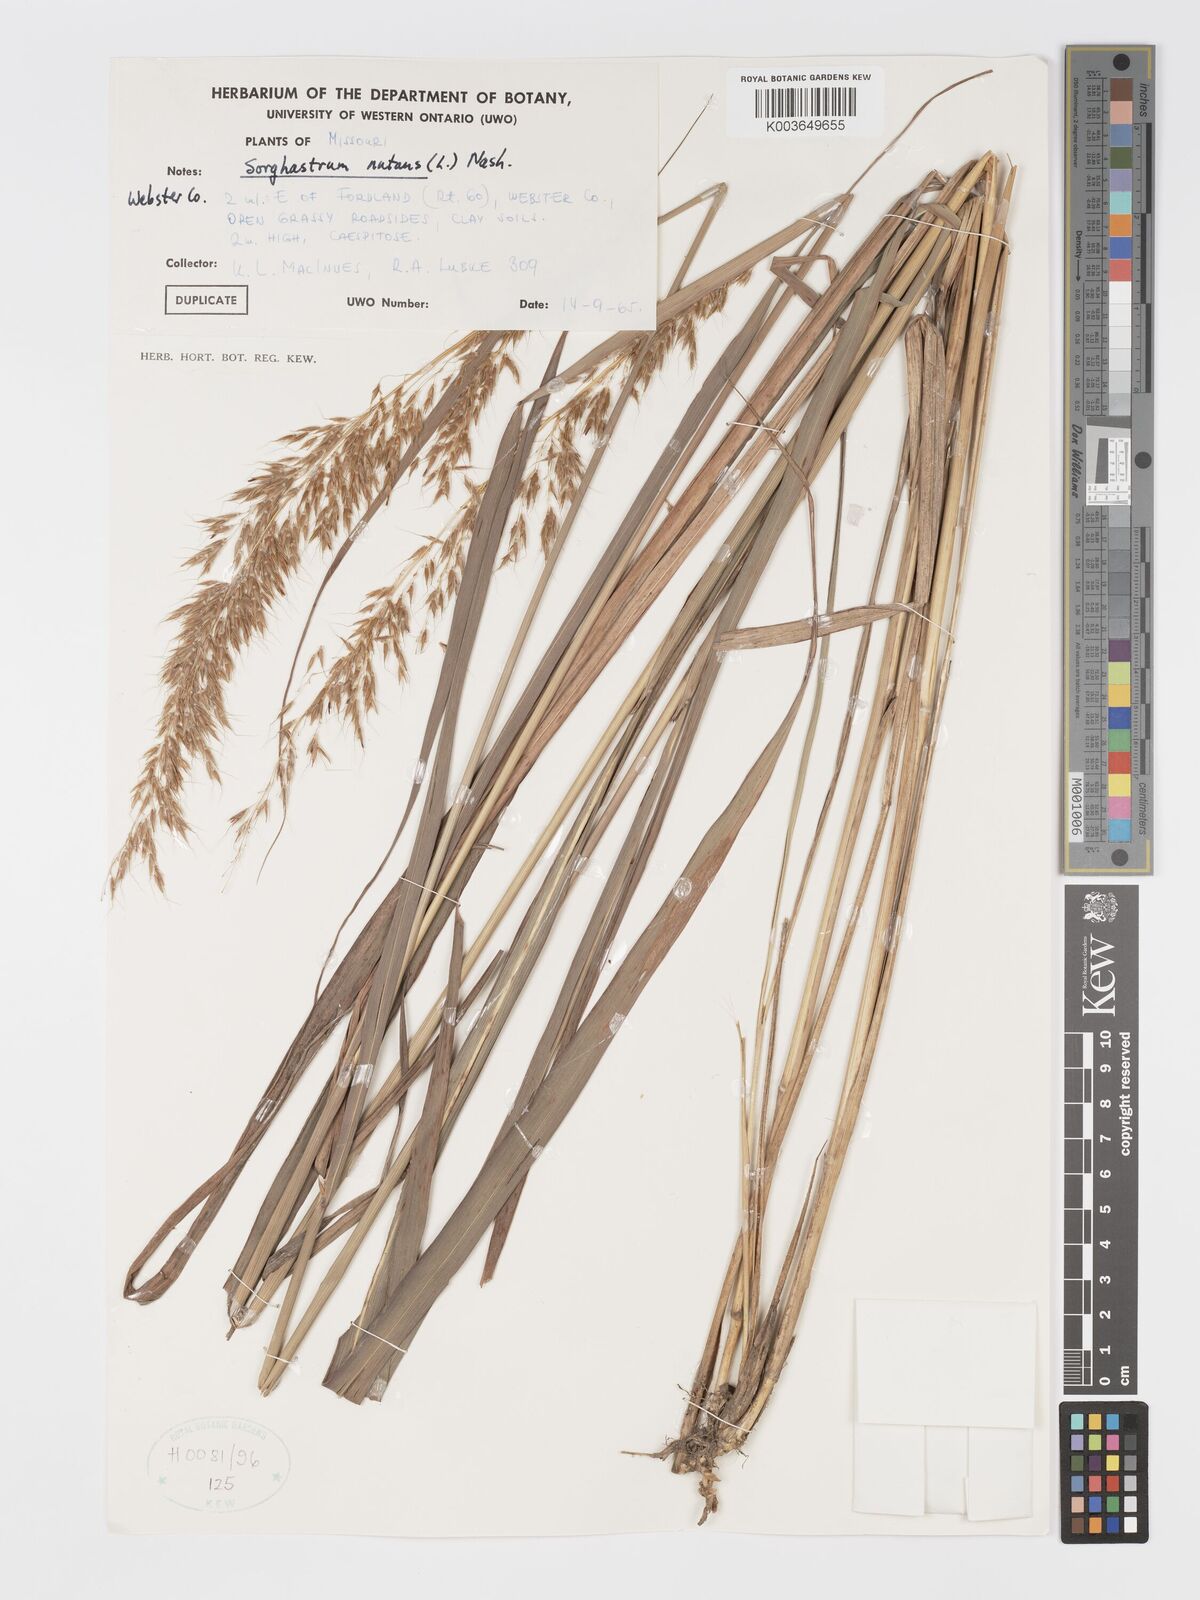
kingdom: Plantae
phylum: Tracheophyta
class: Liliopsida
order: Poales
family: Poaceae
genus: Sorghastrum
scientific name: Sorghastrum nutans
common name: Indian grass
